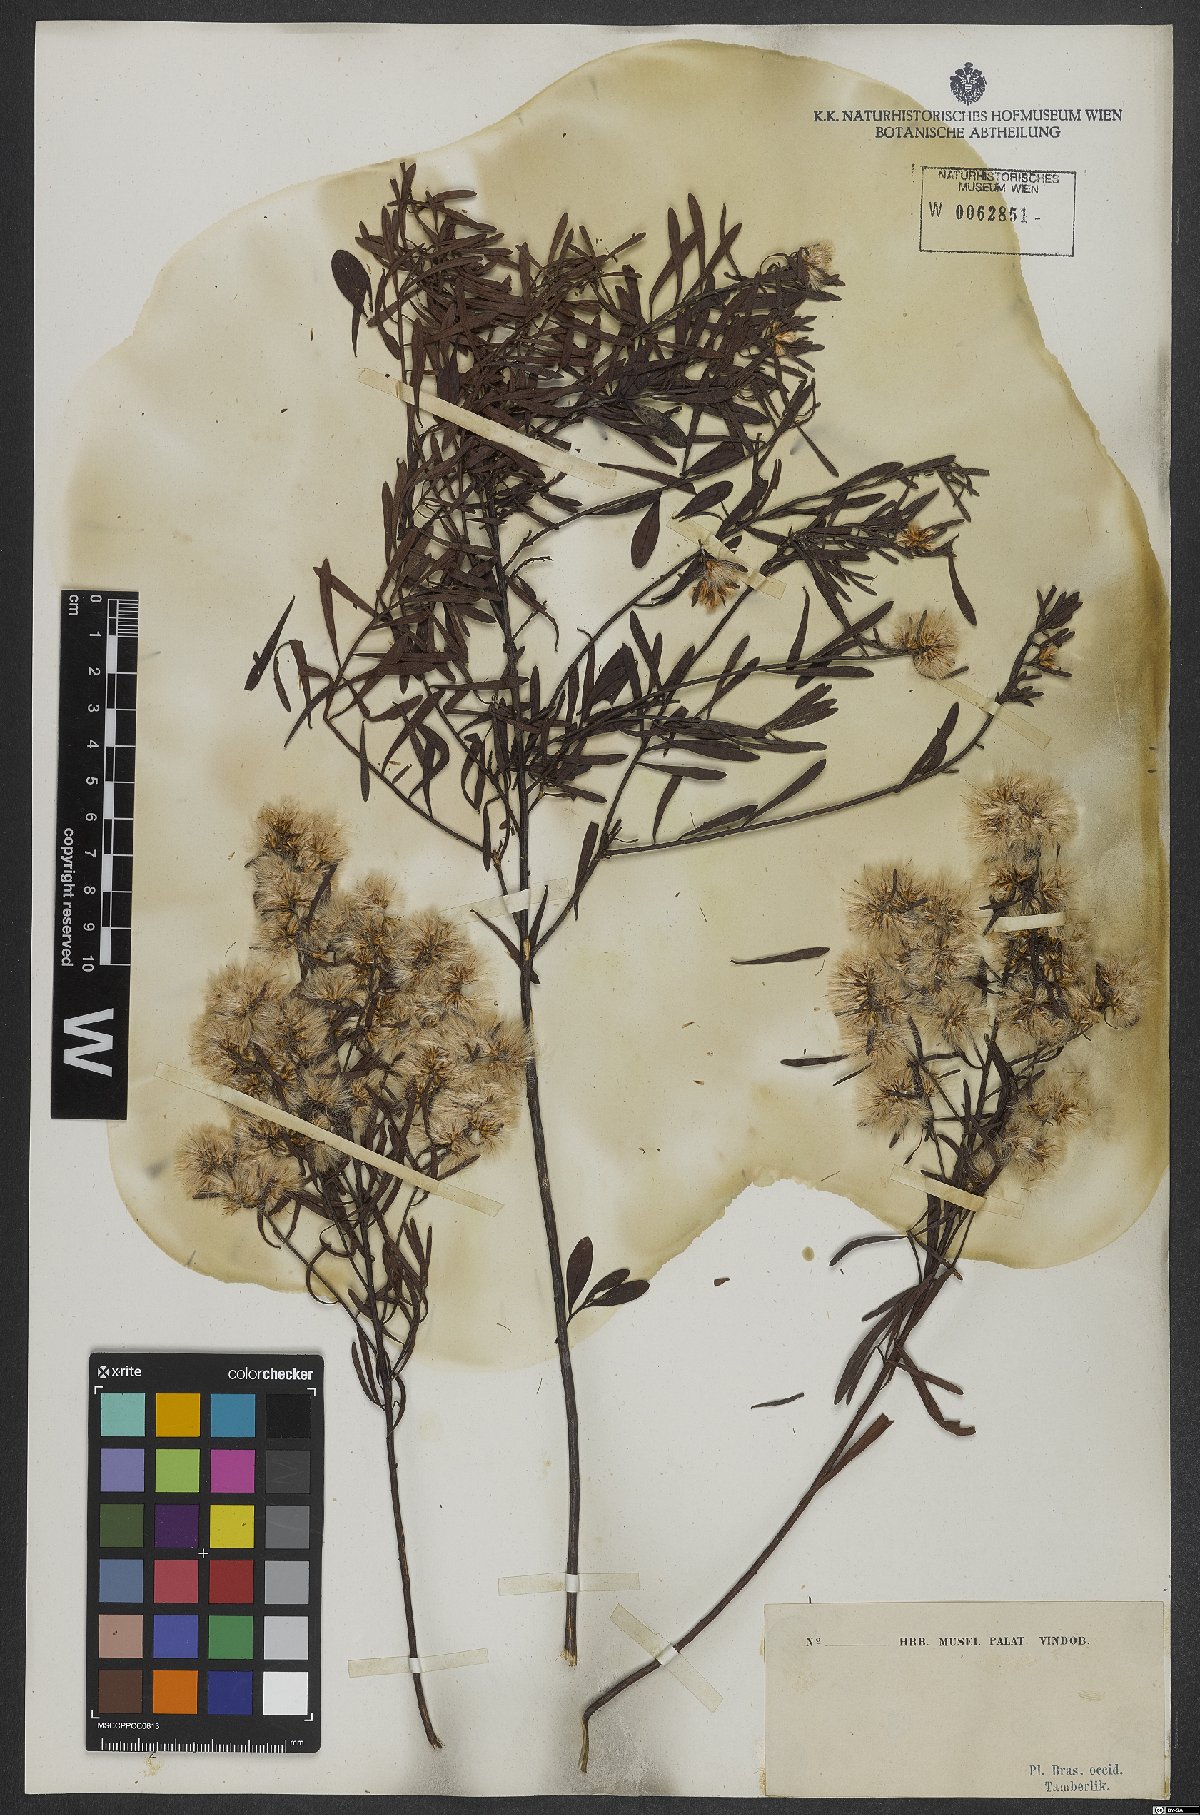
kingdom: Plantae
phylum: Tracheophyta
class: Magnoliopsida
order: Asterales
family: Asteraceae
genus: Baccharis
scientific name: Baccharis
